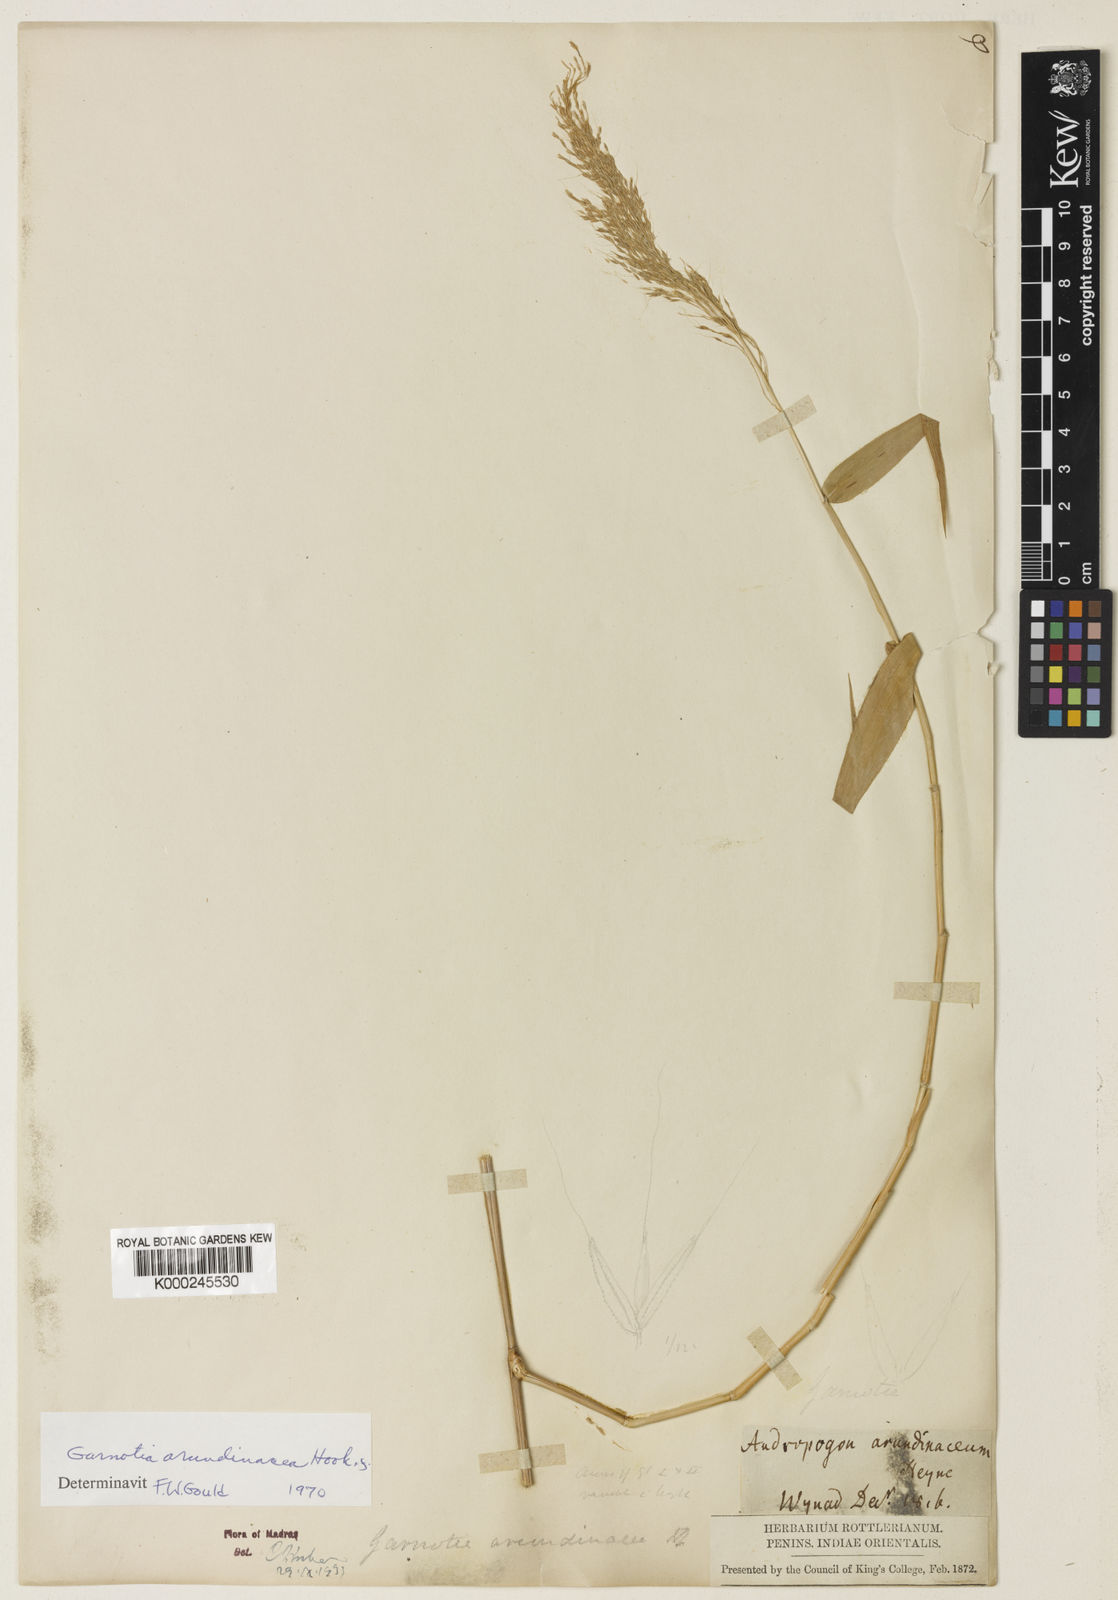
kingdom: Plantae
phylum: Tracheophyta
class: Liliopsida
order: Poales
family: Poaceae
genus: Garnotia
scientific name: Garnotia arundinacea
